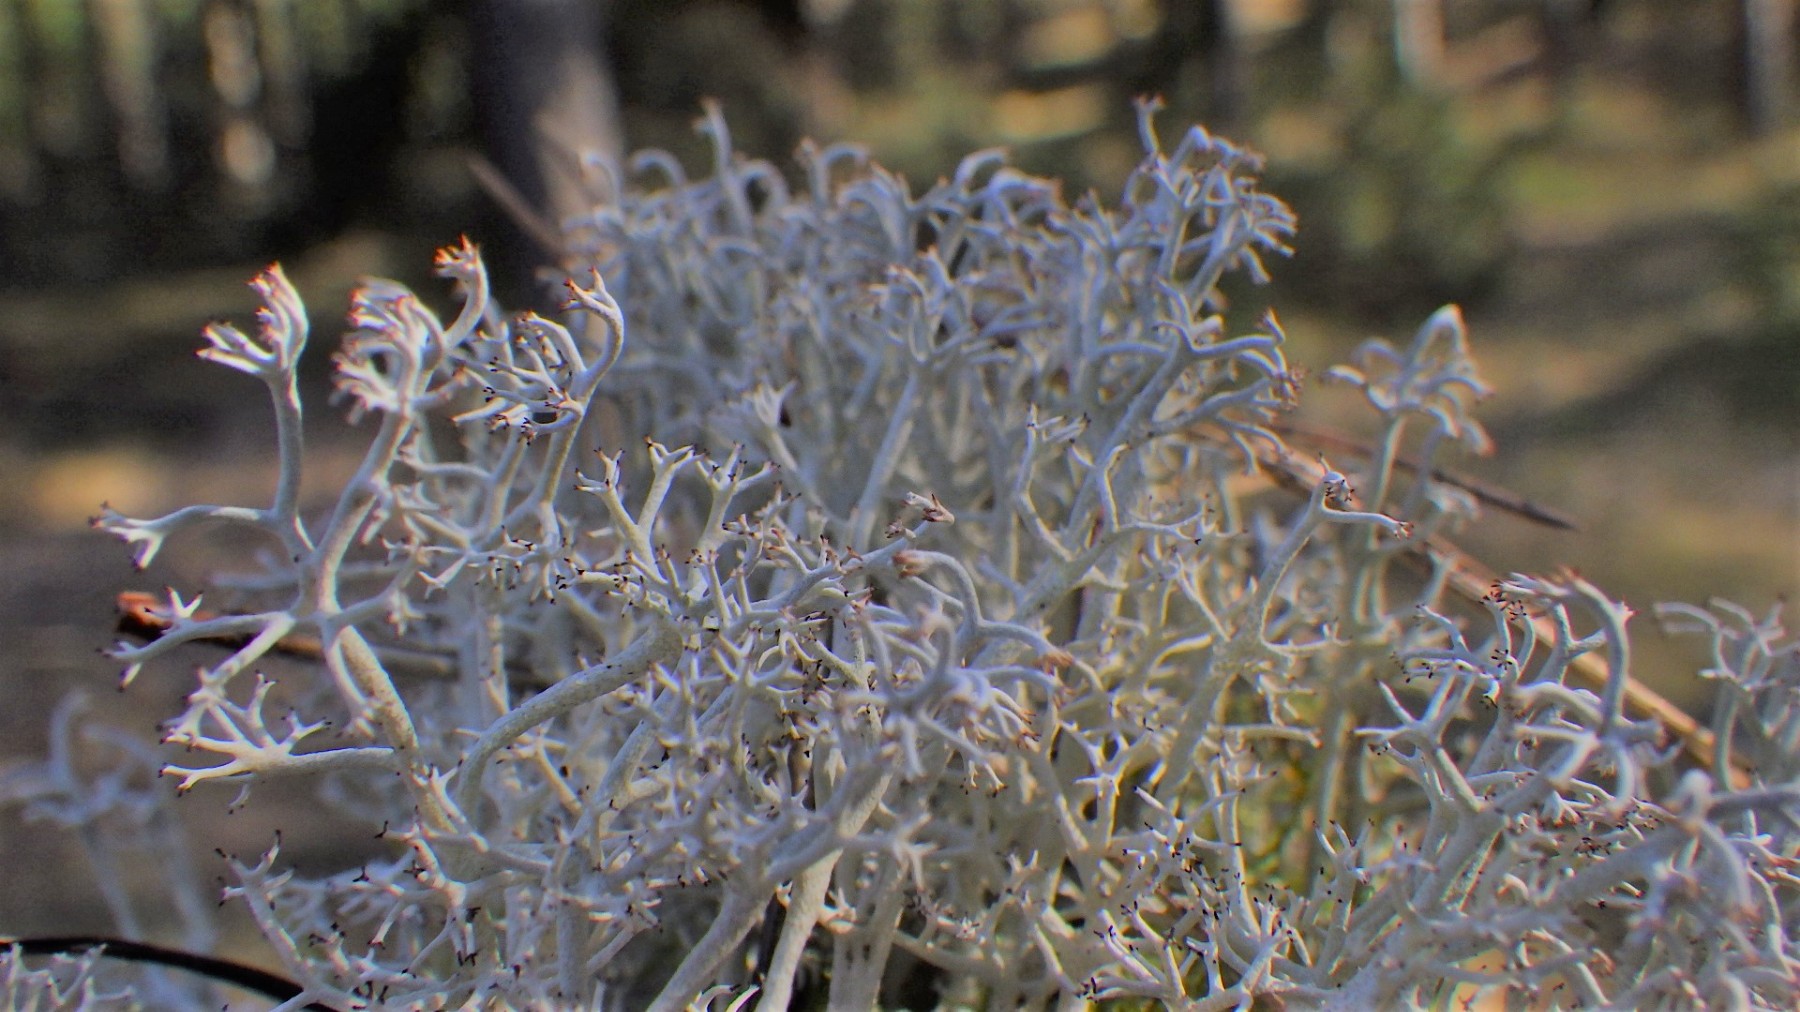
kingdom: Fungi
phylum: Ascomycota
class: Lecanoromycetes
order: Lecanorales
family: Cladoniaceae
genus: Cladonia
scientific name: Cladonia rangiferina
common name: askegrå rensdyrlav
